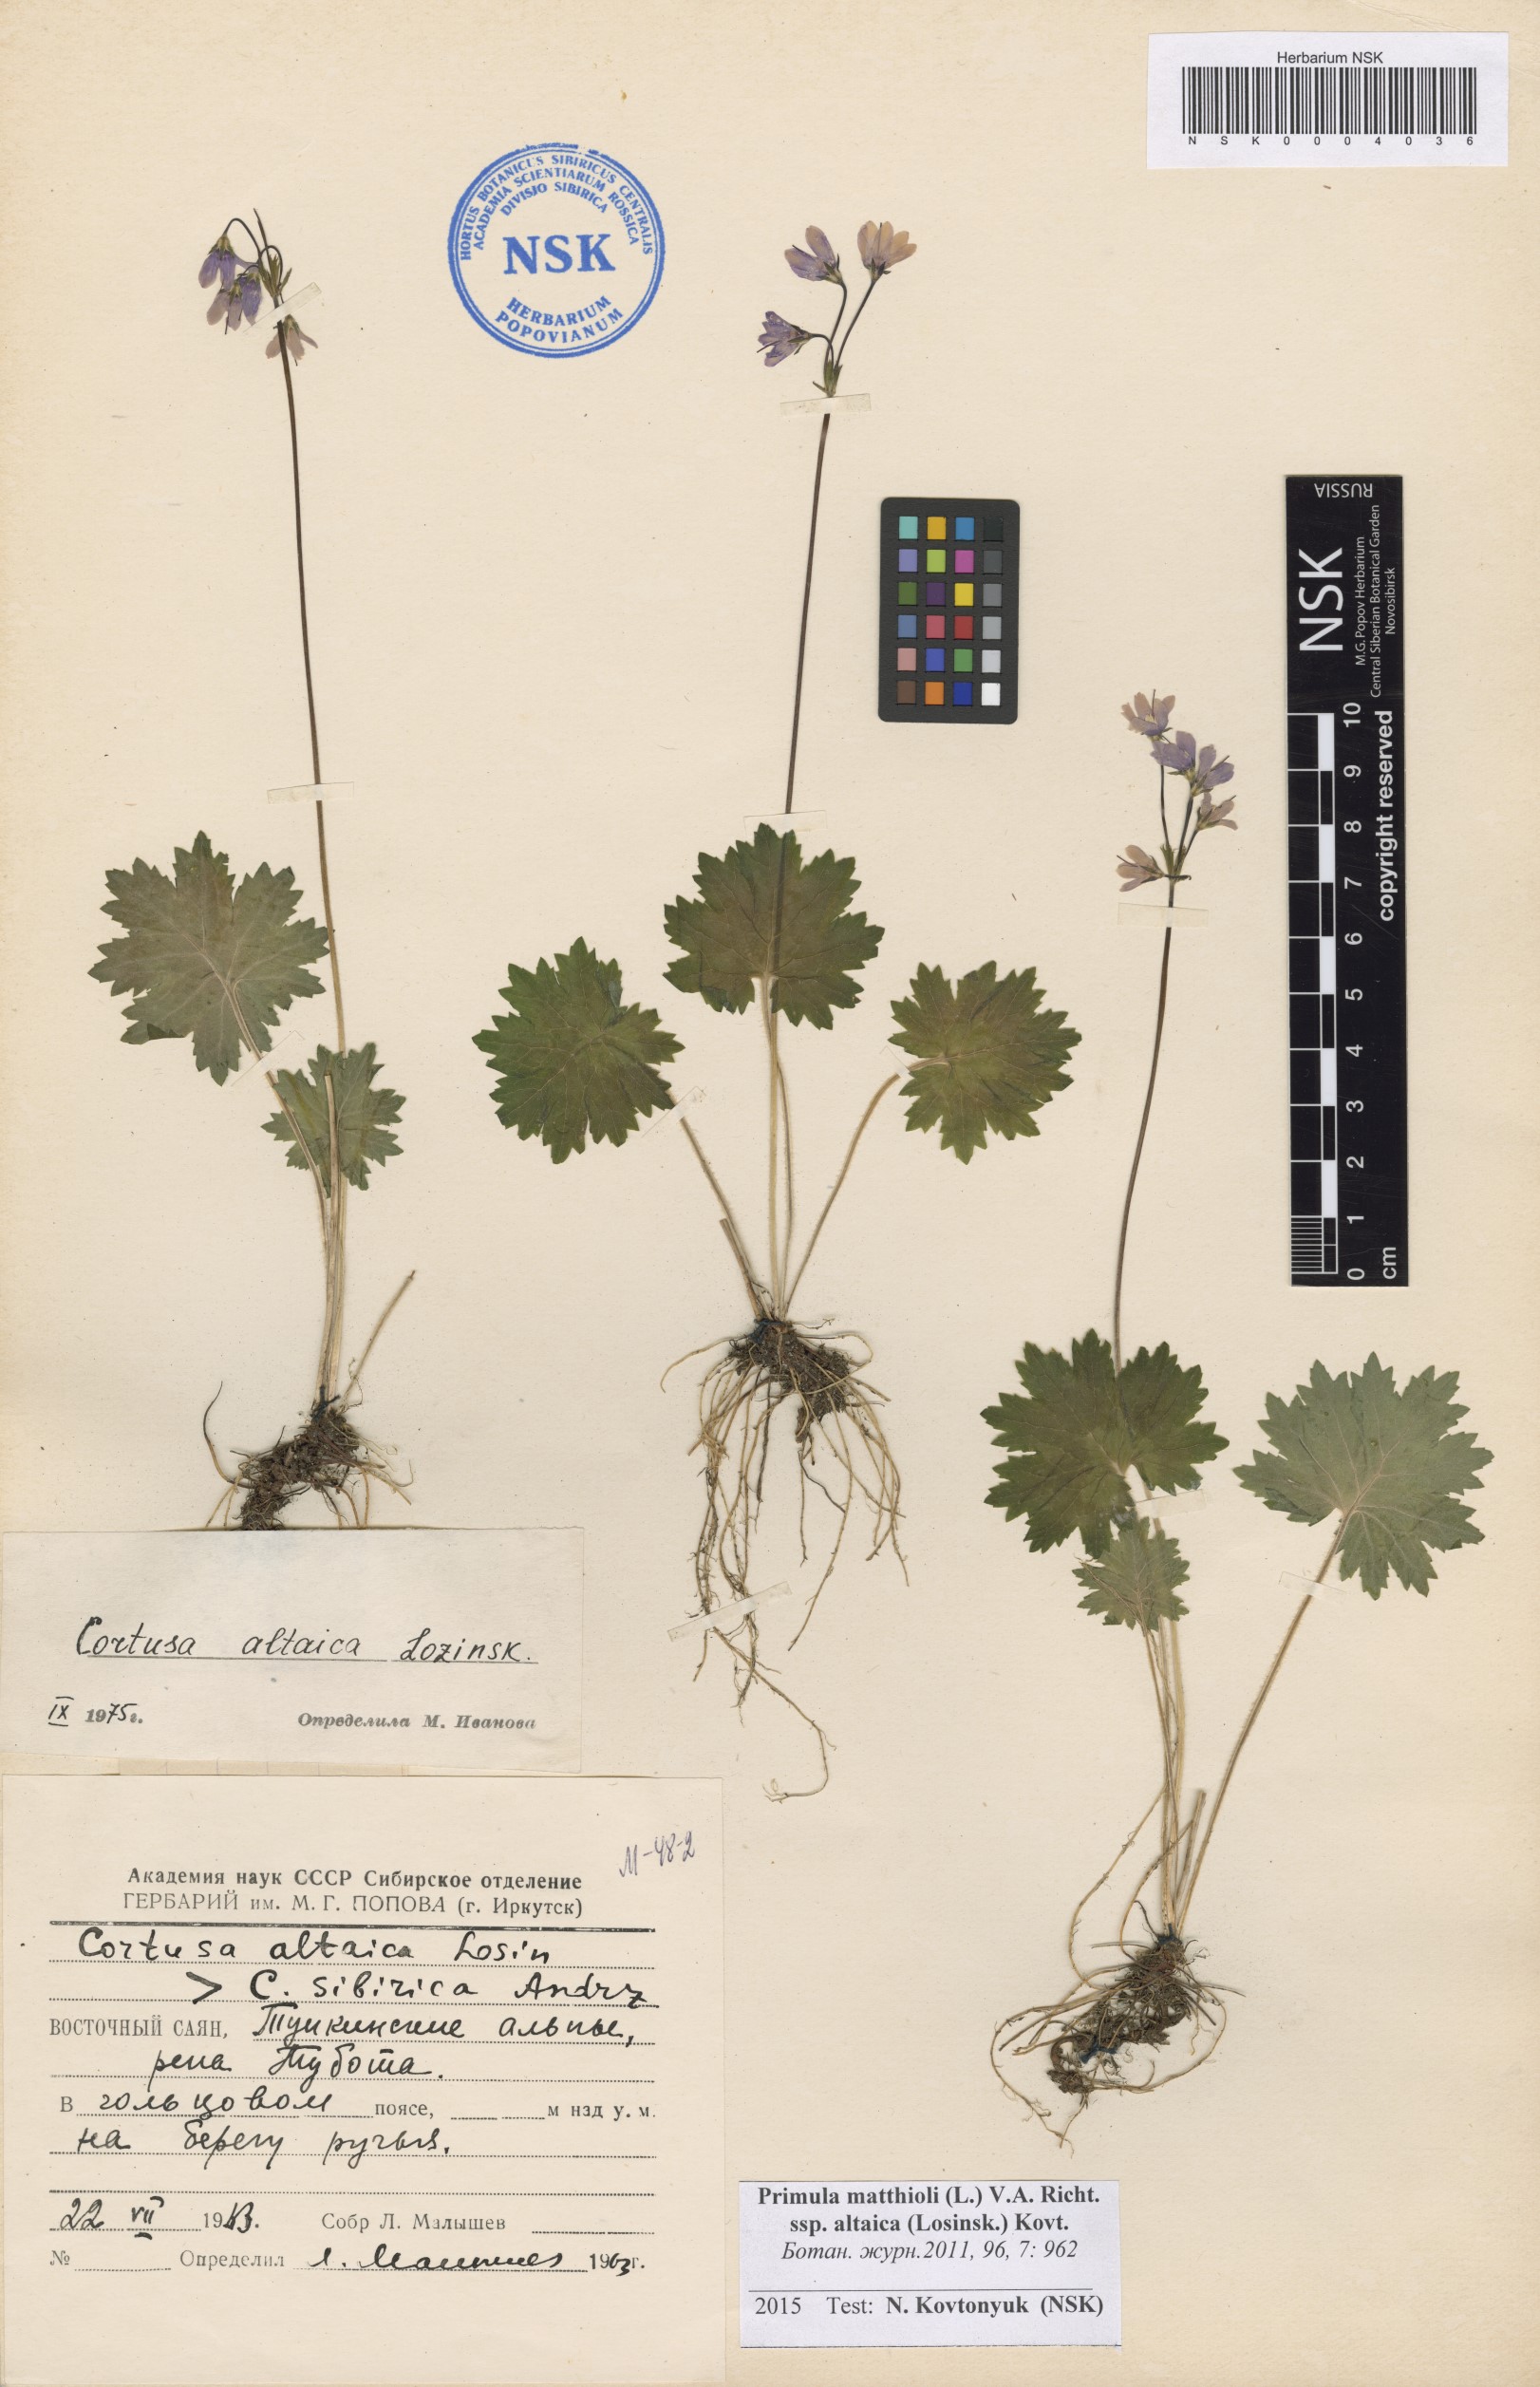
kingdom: Plantae
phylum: Tracheophyta
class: Magnoliopsida
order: Ericales
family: Primulaceae
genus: Primula
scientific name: Primula matthioli
